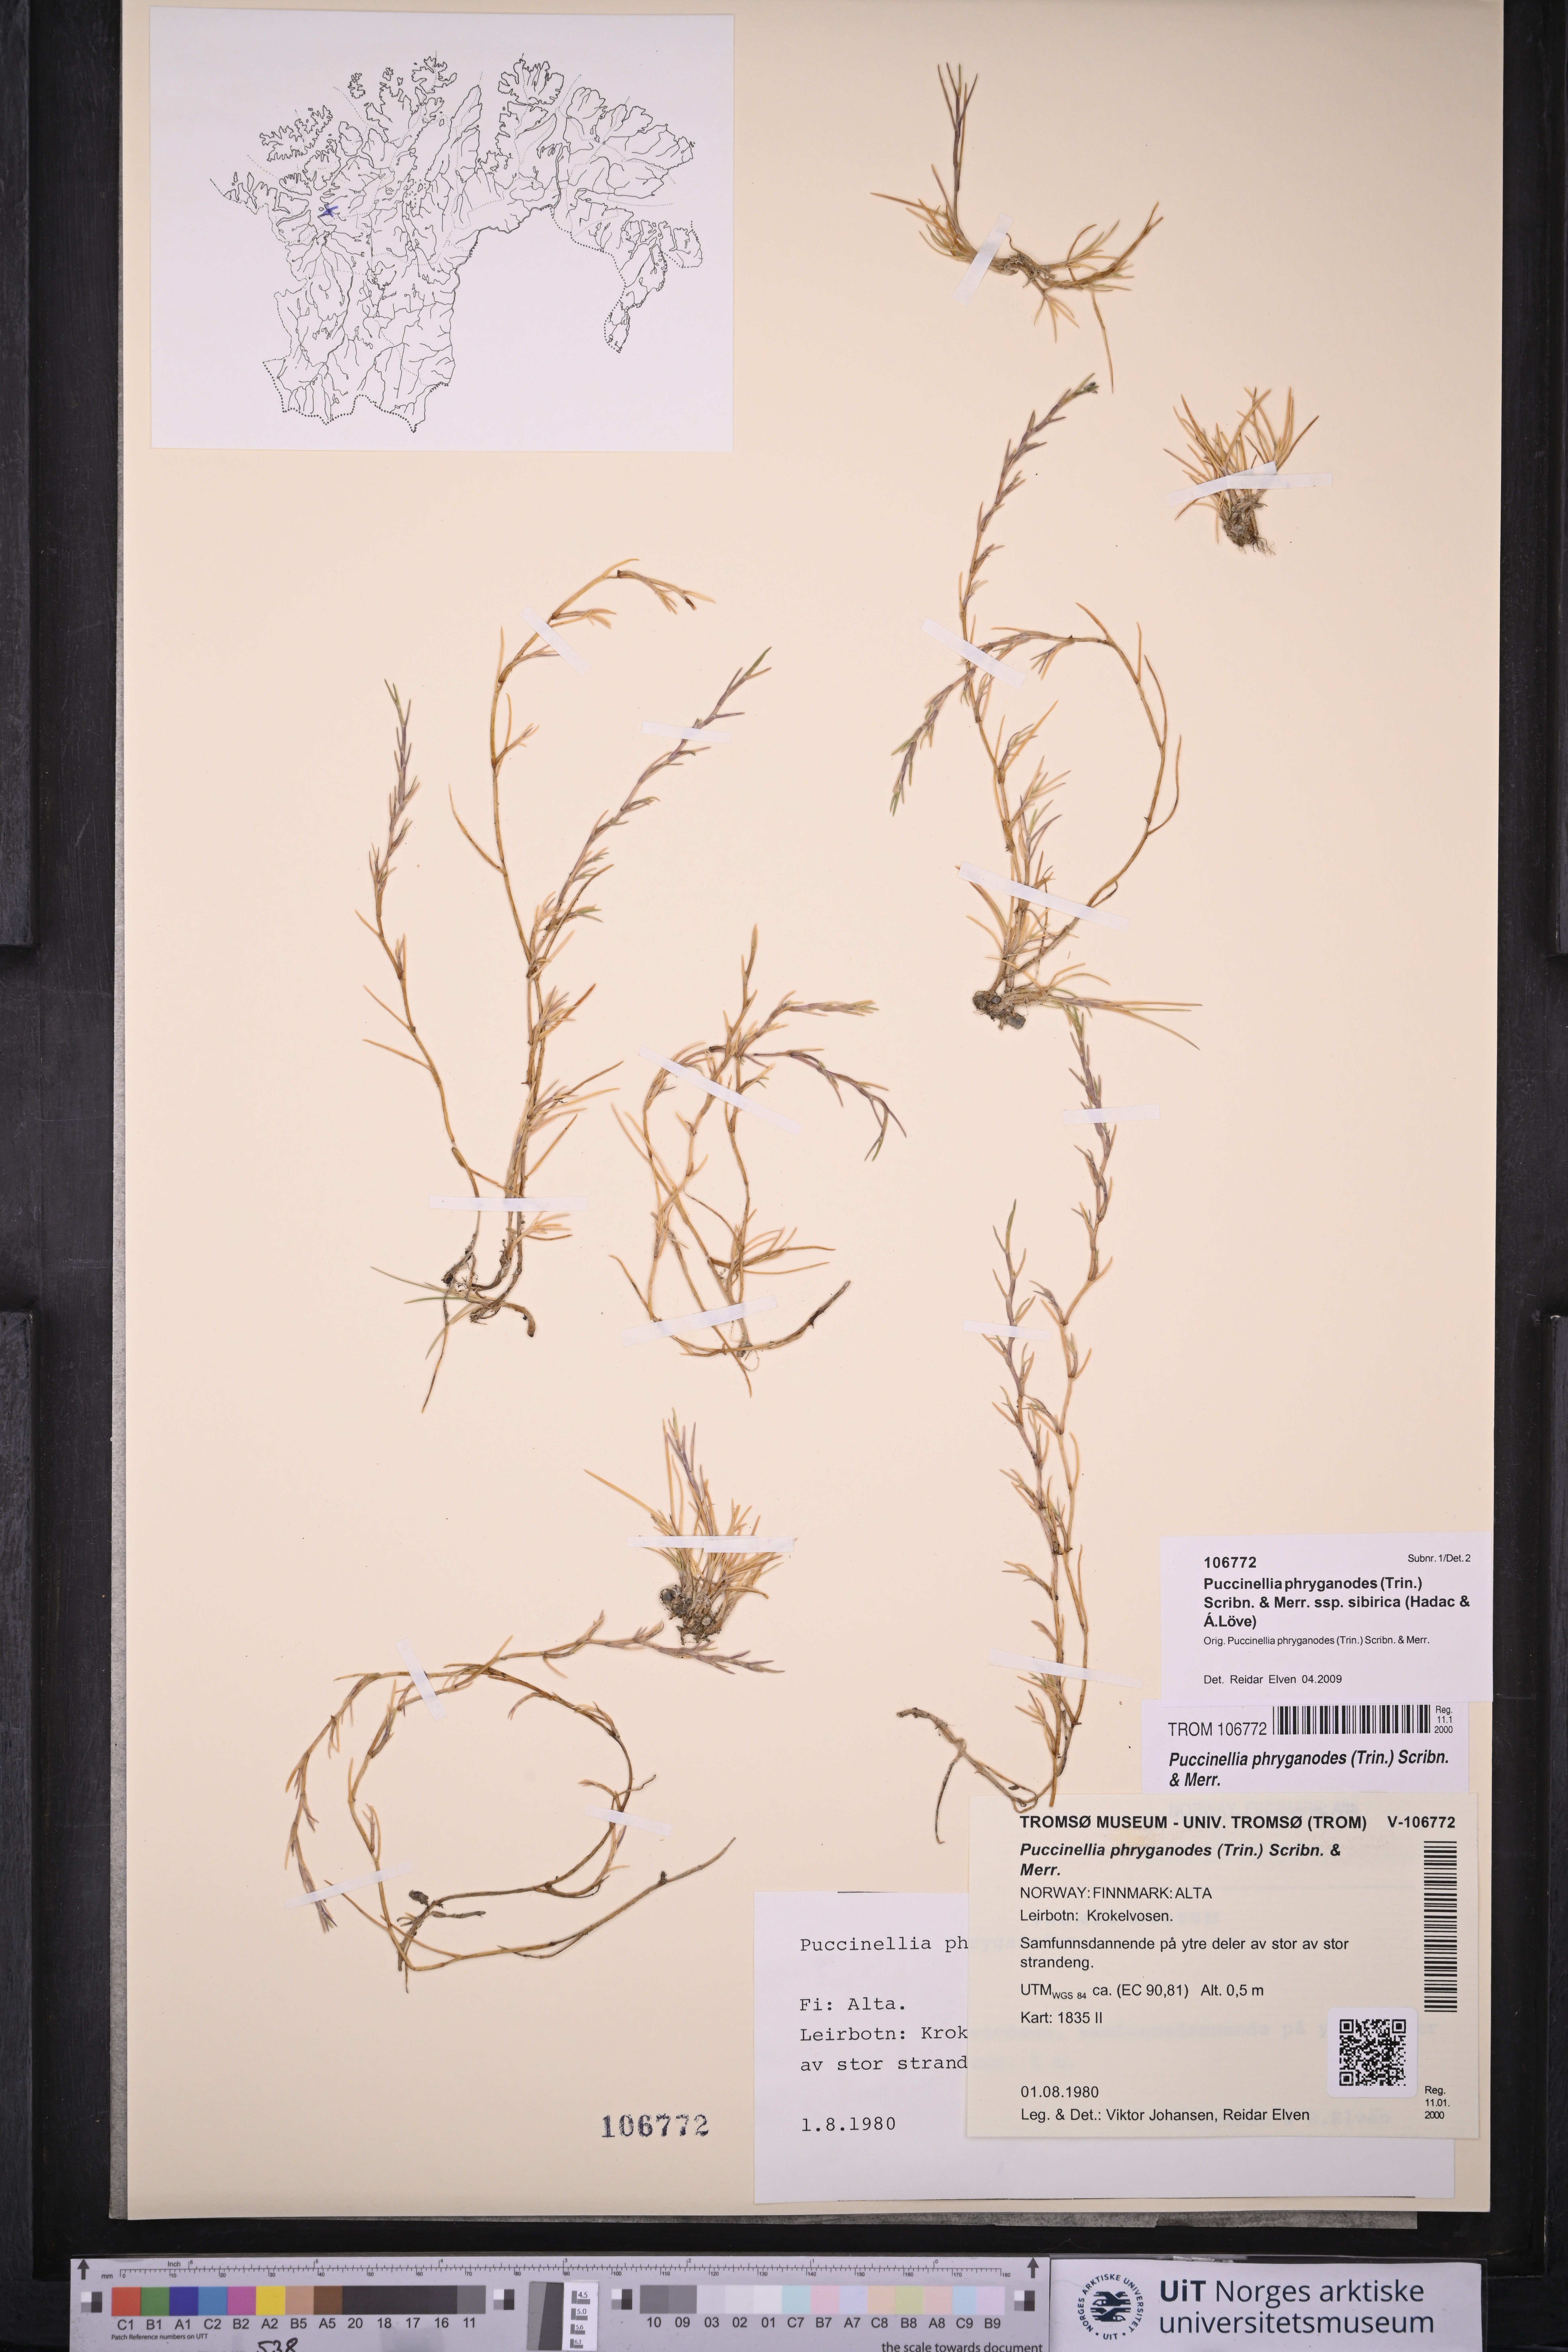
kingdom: Plantae
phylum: Tracheophyta
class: Liliopsida
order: Poales
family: Poaceae
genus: Puccinellia
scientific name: Puccinellia phryganodes
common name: Creeping alkaligrass
